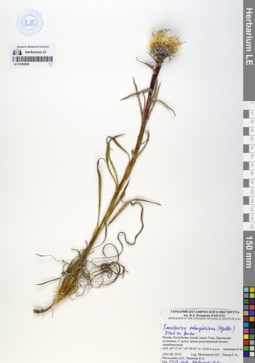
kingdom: Plantae
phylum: Tracheophyta
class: Magnoliopsida
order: Asterales
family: Asteraceae
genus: Saussurea
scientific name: Saussurea schanginiana
